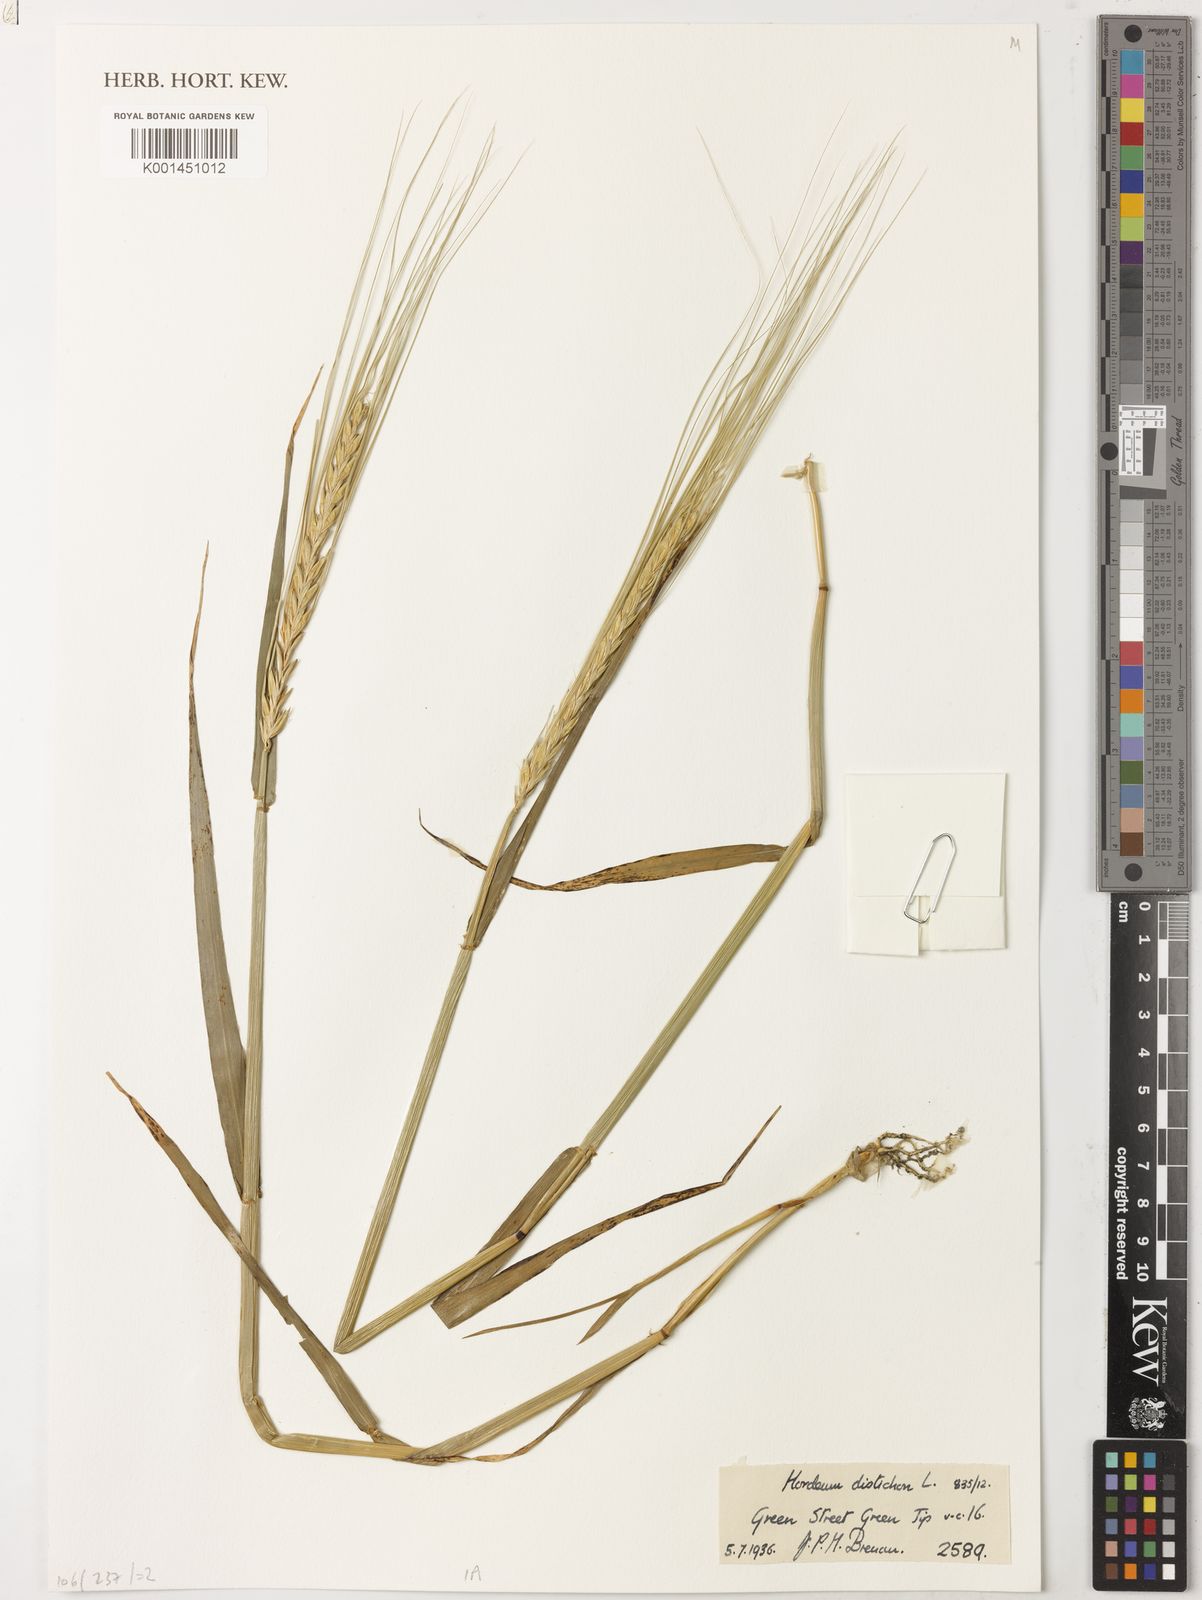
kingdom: Plantae
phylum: Tracheophyta
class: Liliopsida
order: Poales
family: Poaceae
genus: Hordeum
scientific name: Hordeum vulgare
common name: Common barley
